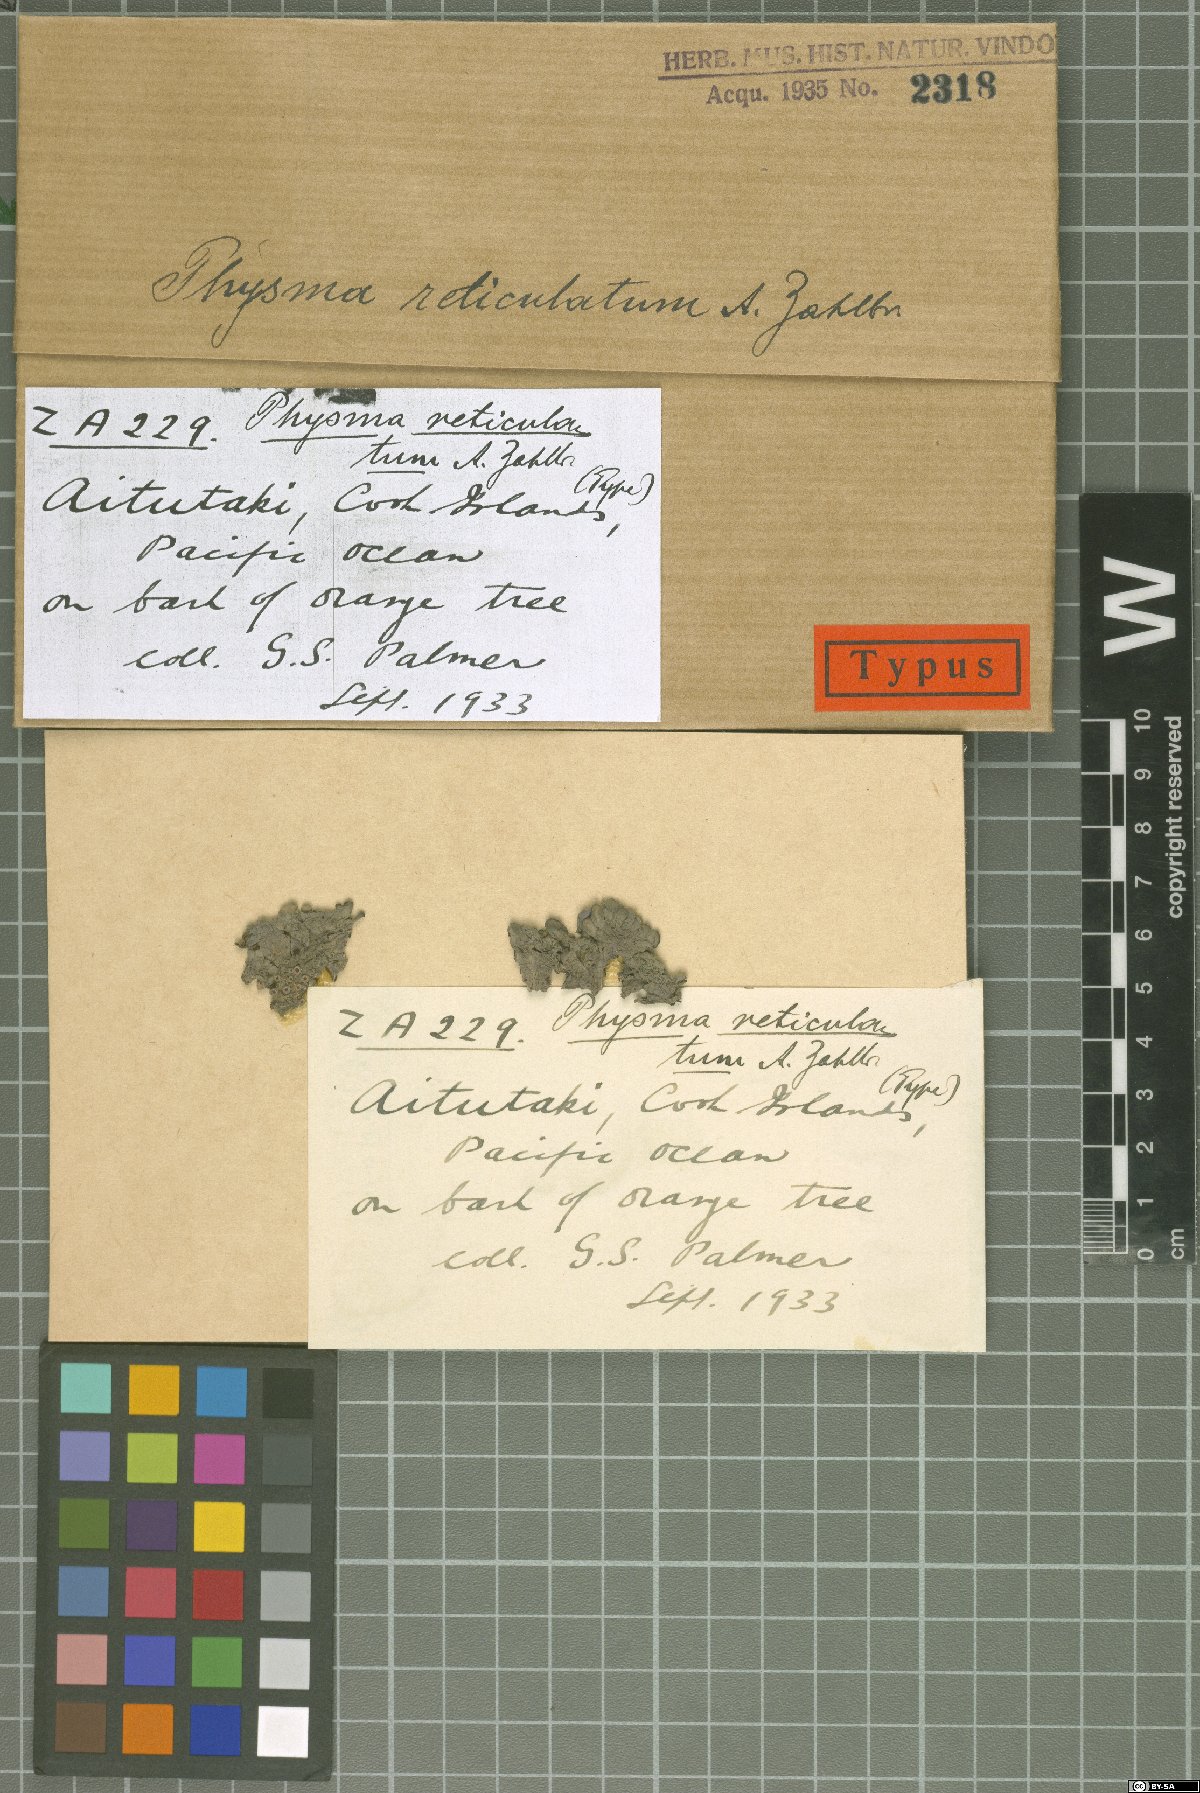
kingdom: Fungi
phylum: Ascomycota
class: Lecanoromycetes
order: Peltigerales
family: Collemataceae
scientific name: Collemataceae
